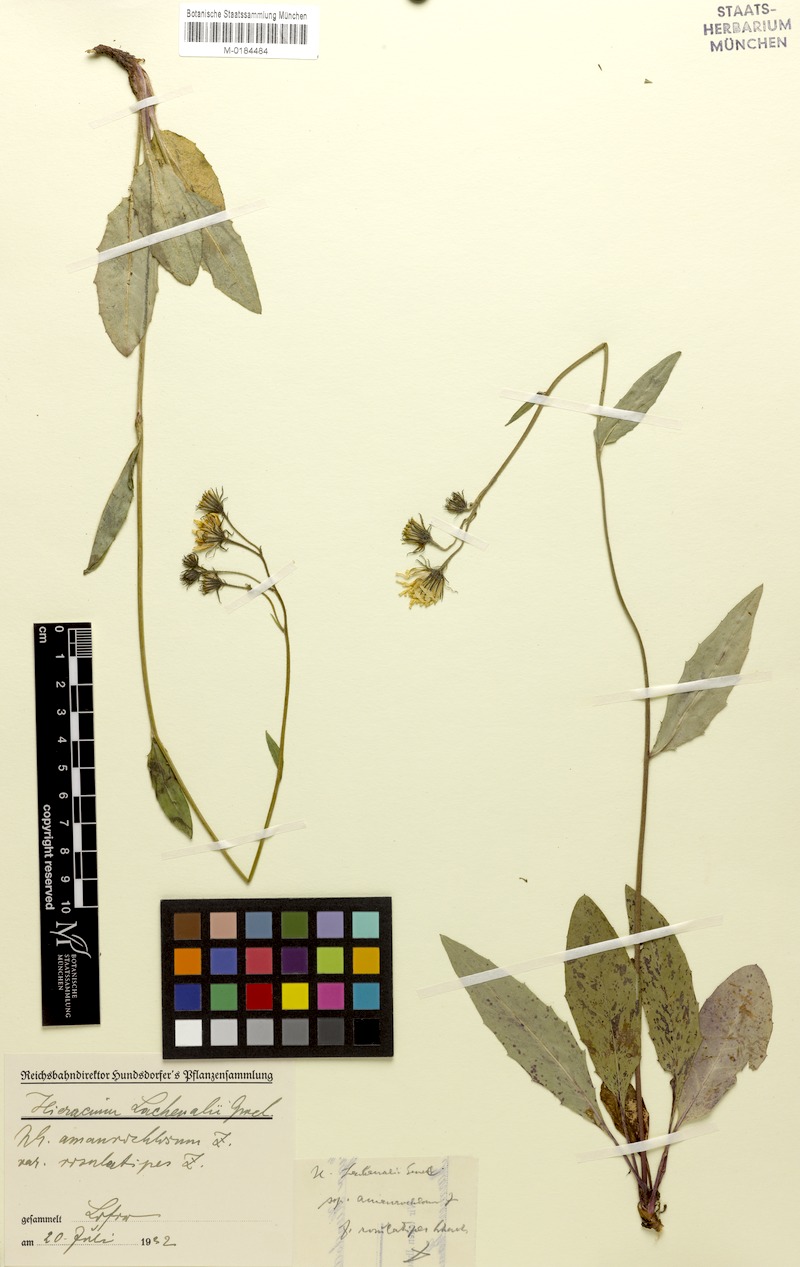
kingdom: Plantae
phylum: Tracheophyta
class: Magnoliopsida
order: Asterales
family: Asteraceae
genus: Hieracium
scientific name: Hieracium lachenalii
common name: Common hawkweed
